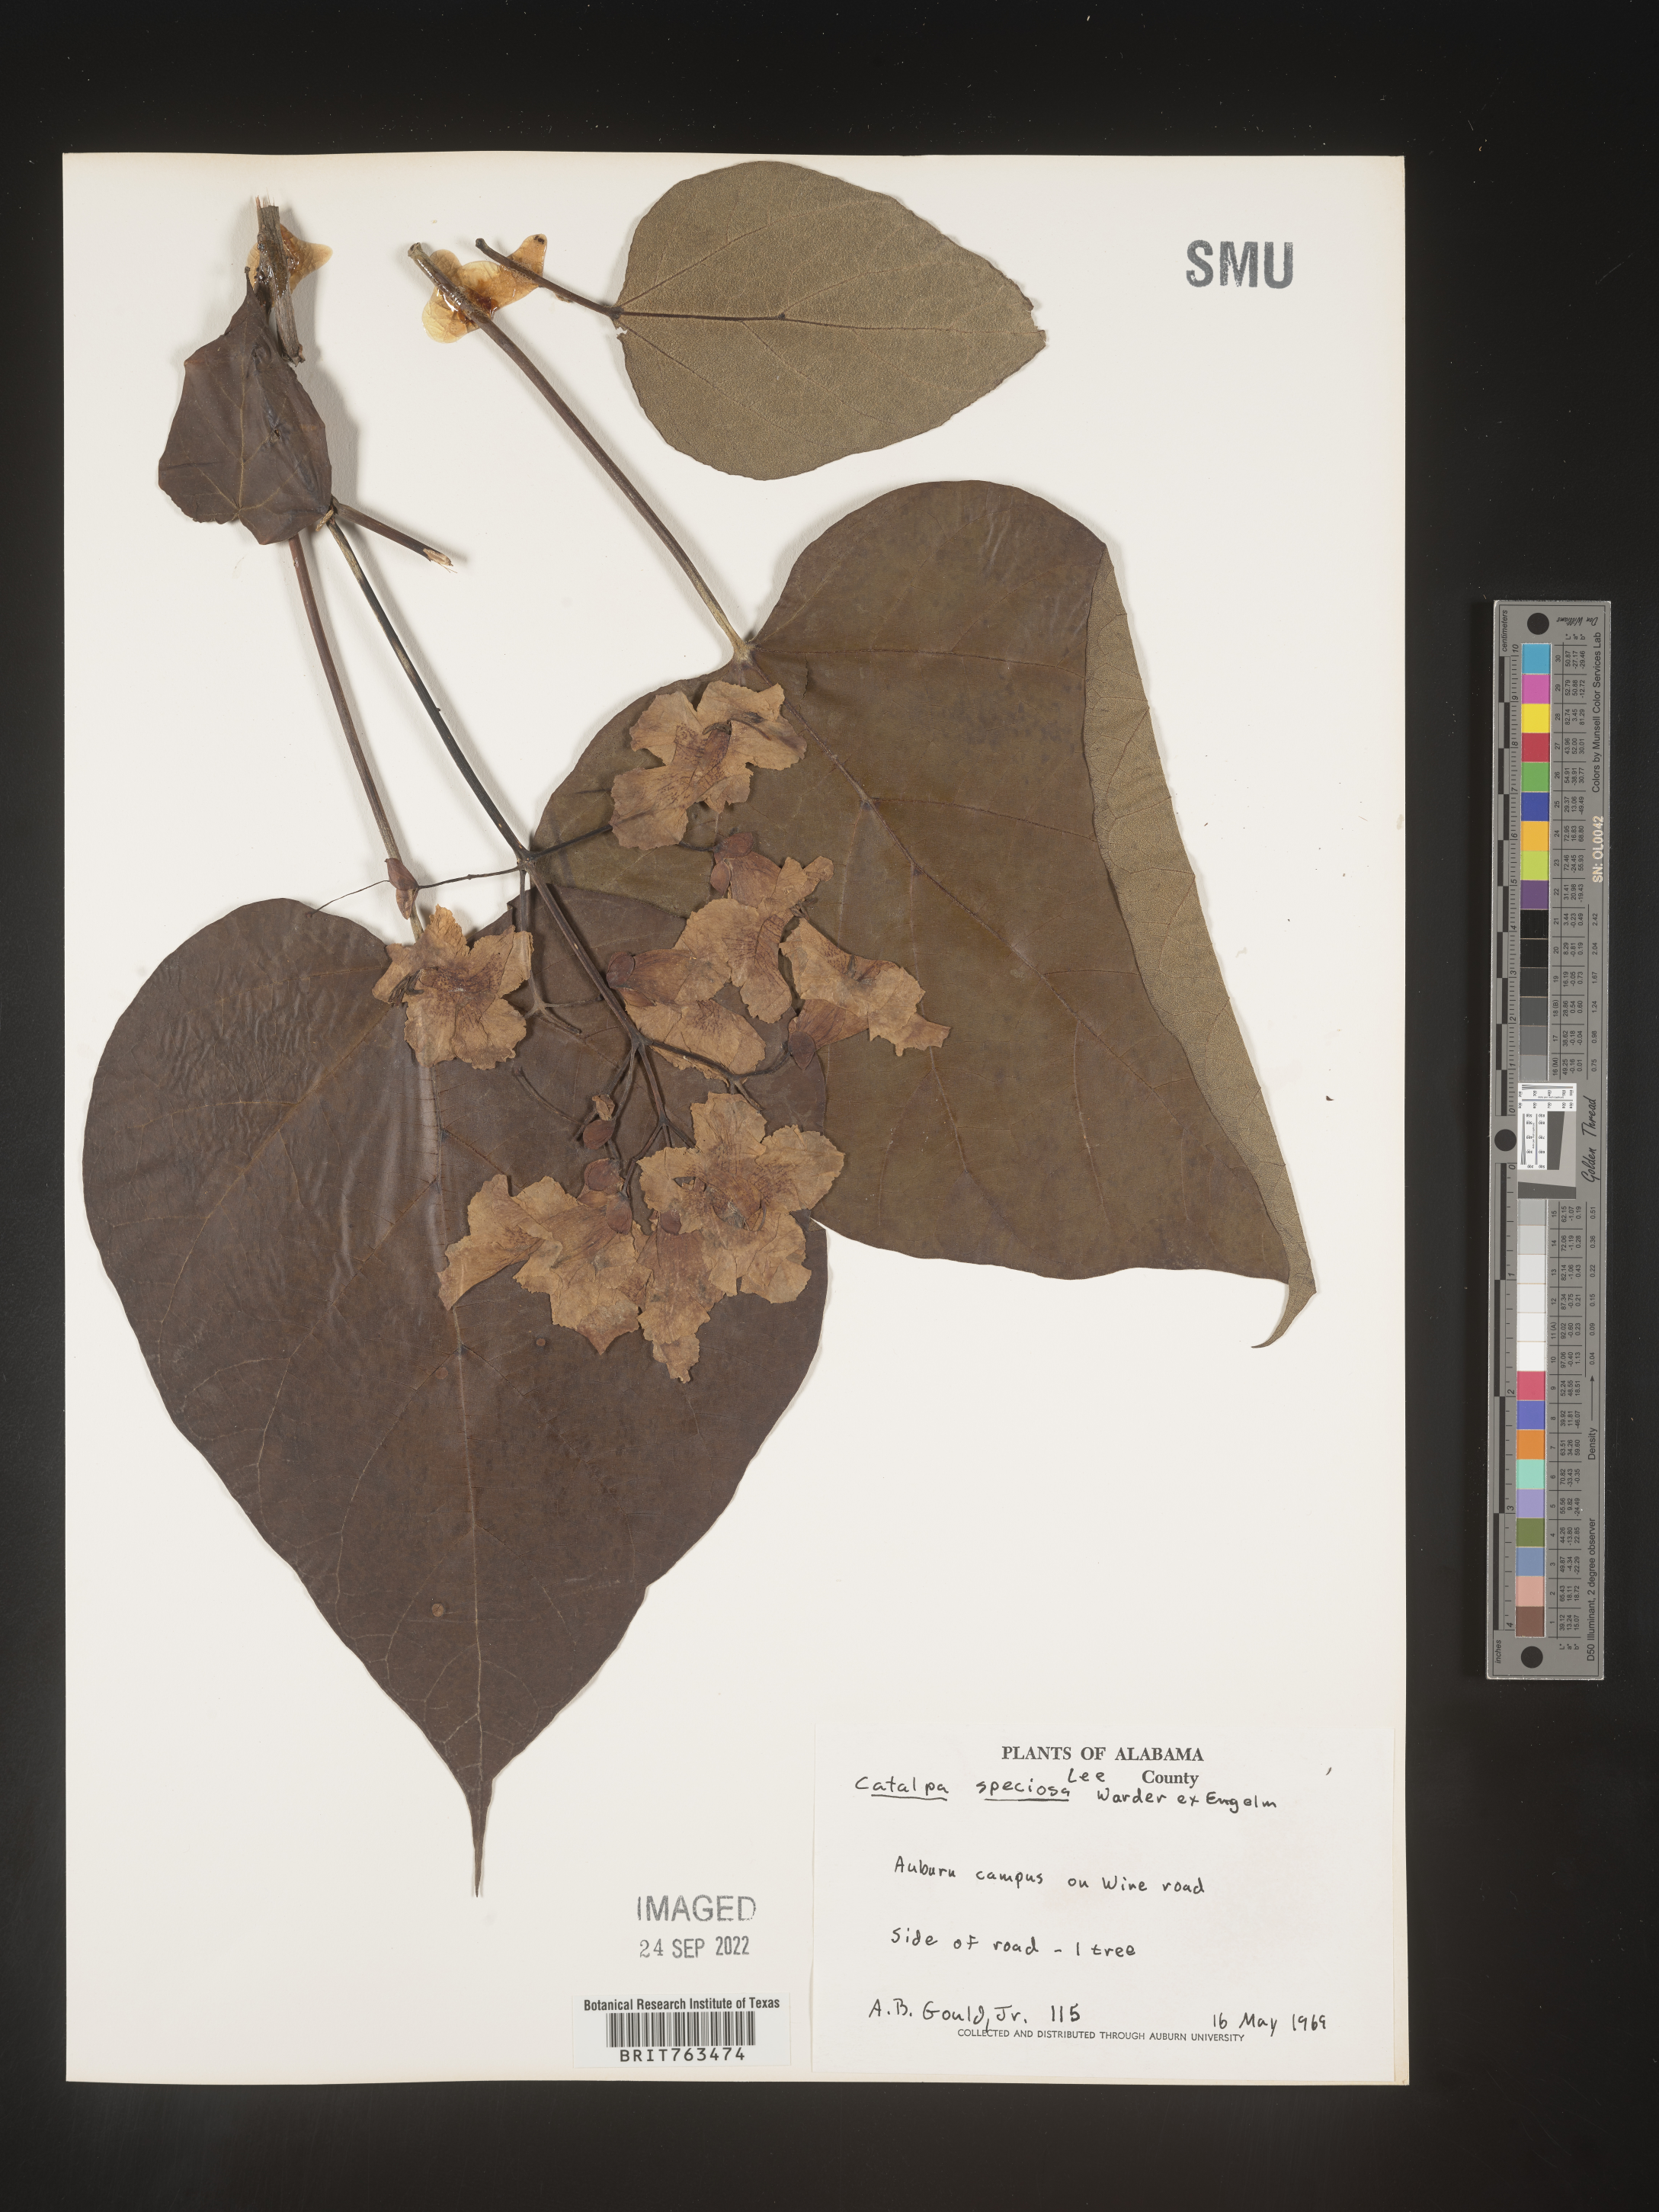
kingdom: Plantae
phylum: Tracheophyta
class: Magnoliopsida
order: Lamiales
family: Bignoniaceae
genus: Catalpa
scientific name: Catalpa speciosa
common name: Northern catalpa
